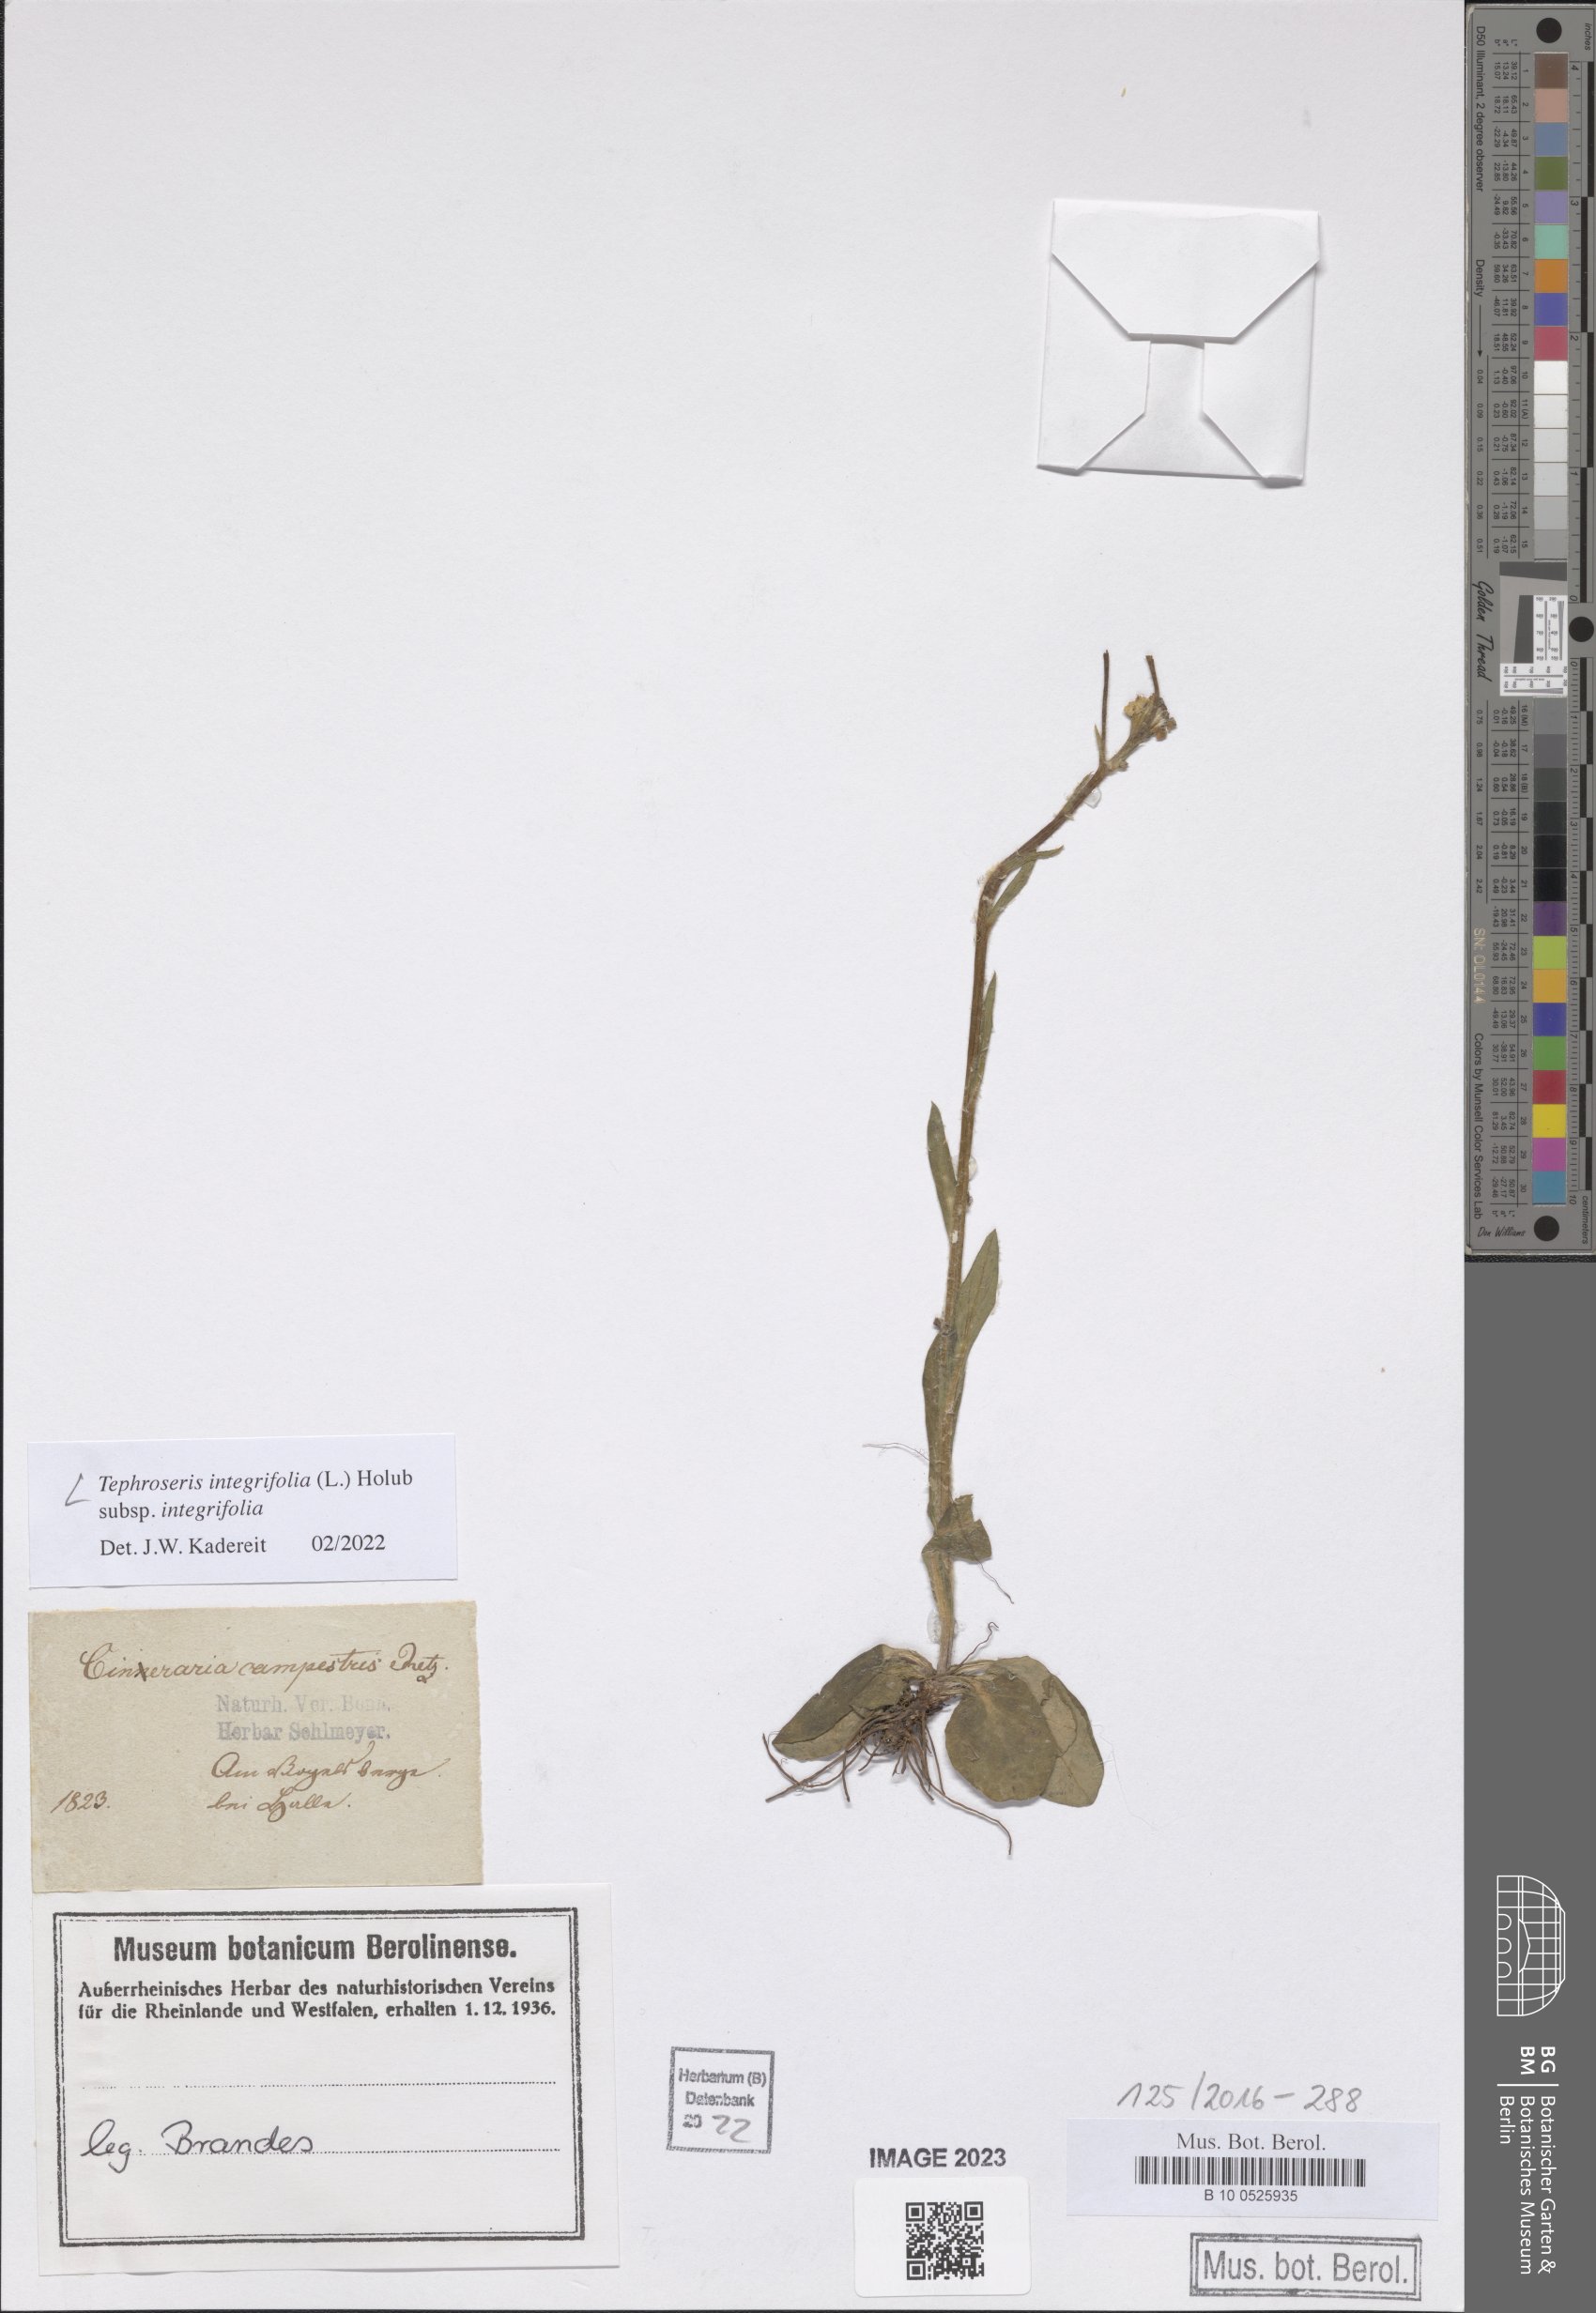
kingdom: Plantae
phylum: Tracheophyta
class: Magnoliopsida
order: Asterales
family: Asteraceae
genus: Tephroseris
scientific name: Tephroseris integrifolia
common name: Field fleawort
